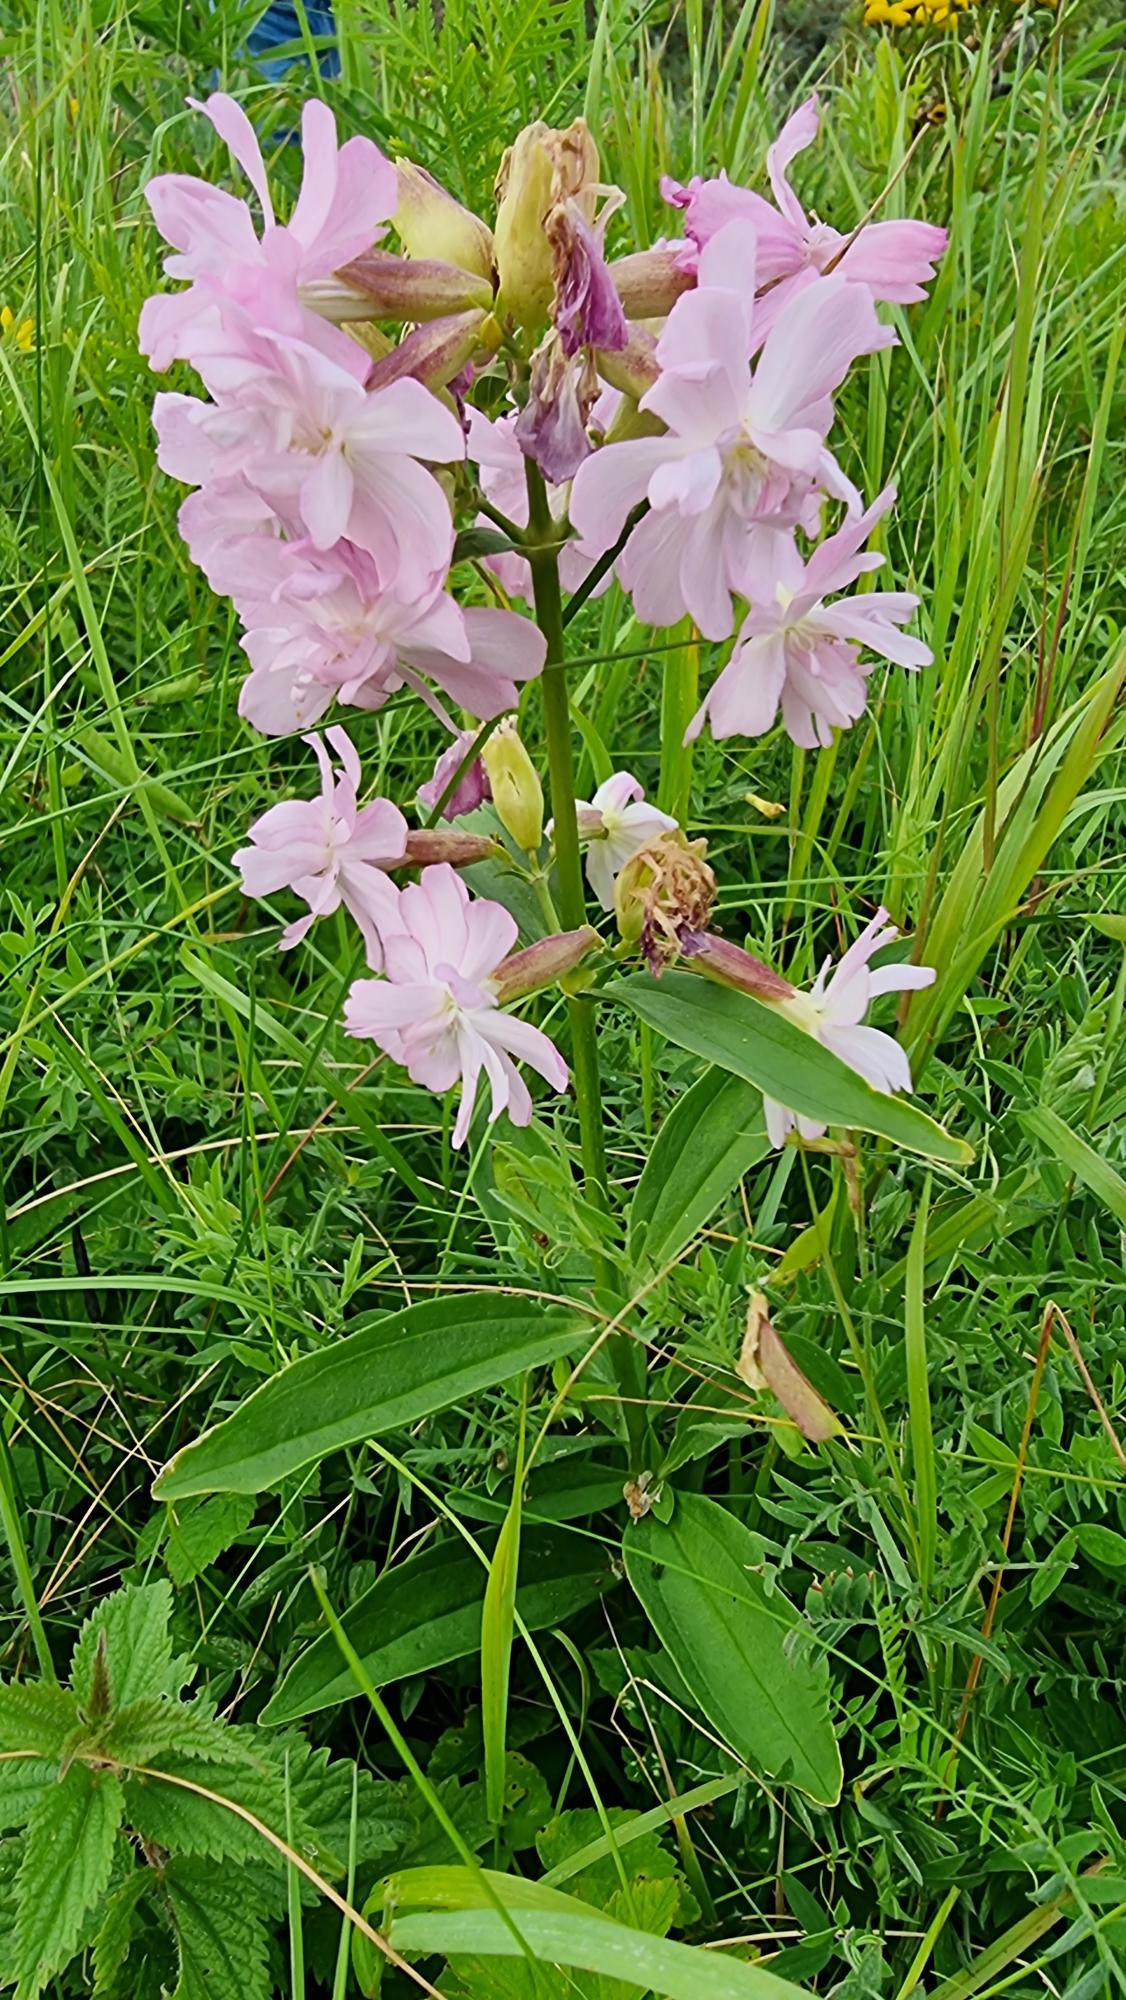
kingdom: Plantae
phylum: Tracheophyta
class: Magnoliopsida
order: Caryophyllales
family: Caryophyllaceae
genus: Saponaria
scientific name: Saponaria officinalis
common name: Sæbeurt
